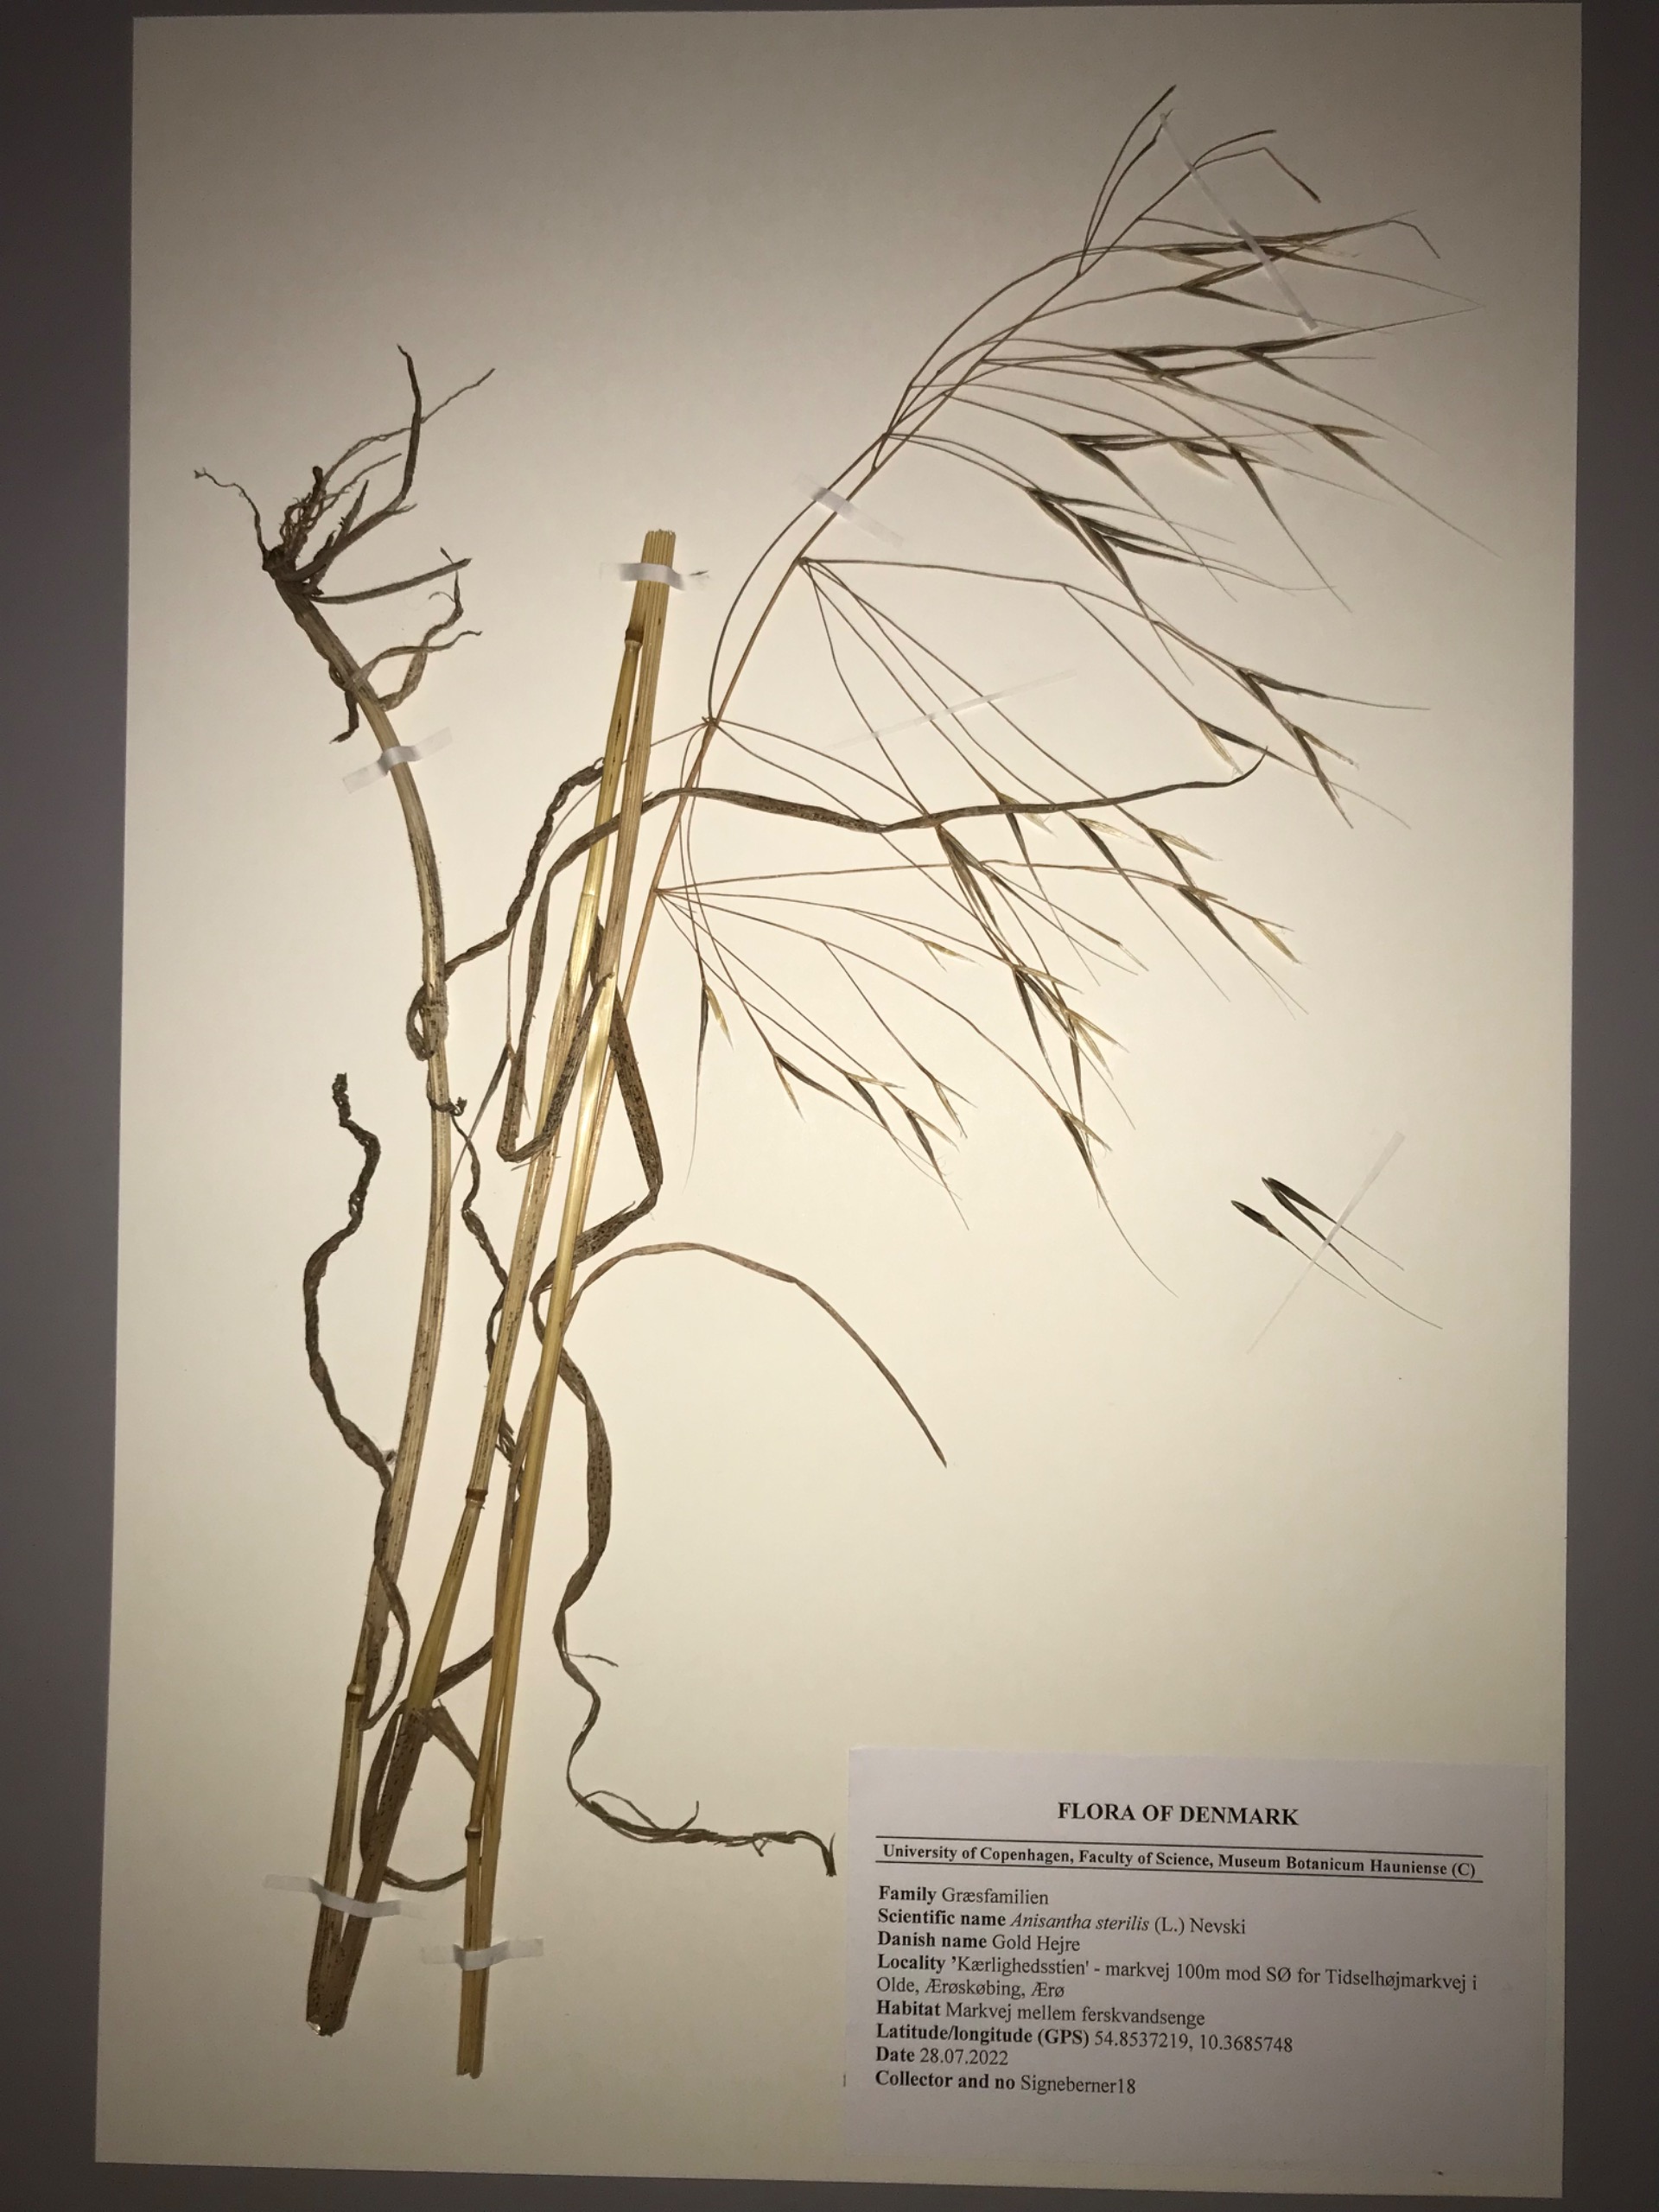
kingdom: Plantae
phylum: Tracheophyta
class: Liliopsida
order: Poales
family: Poaceae
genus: Bromus
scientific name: Bromus sterilis
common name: Gold hejre
